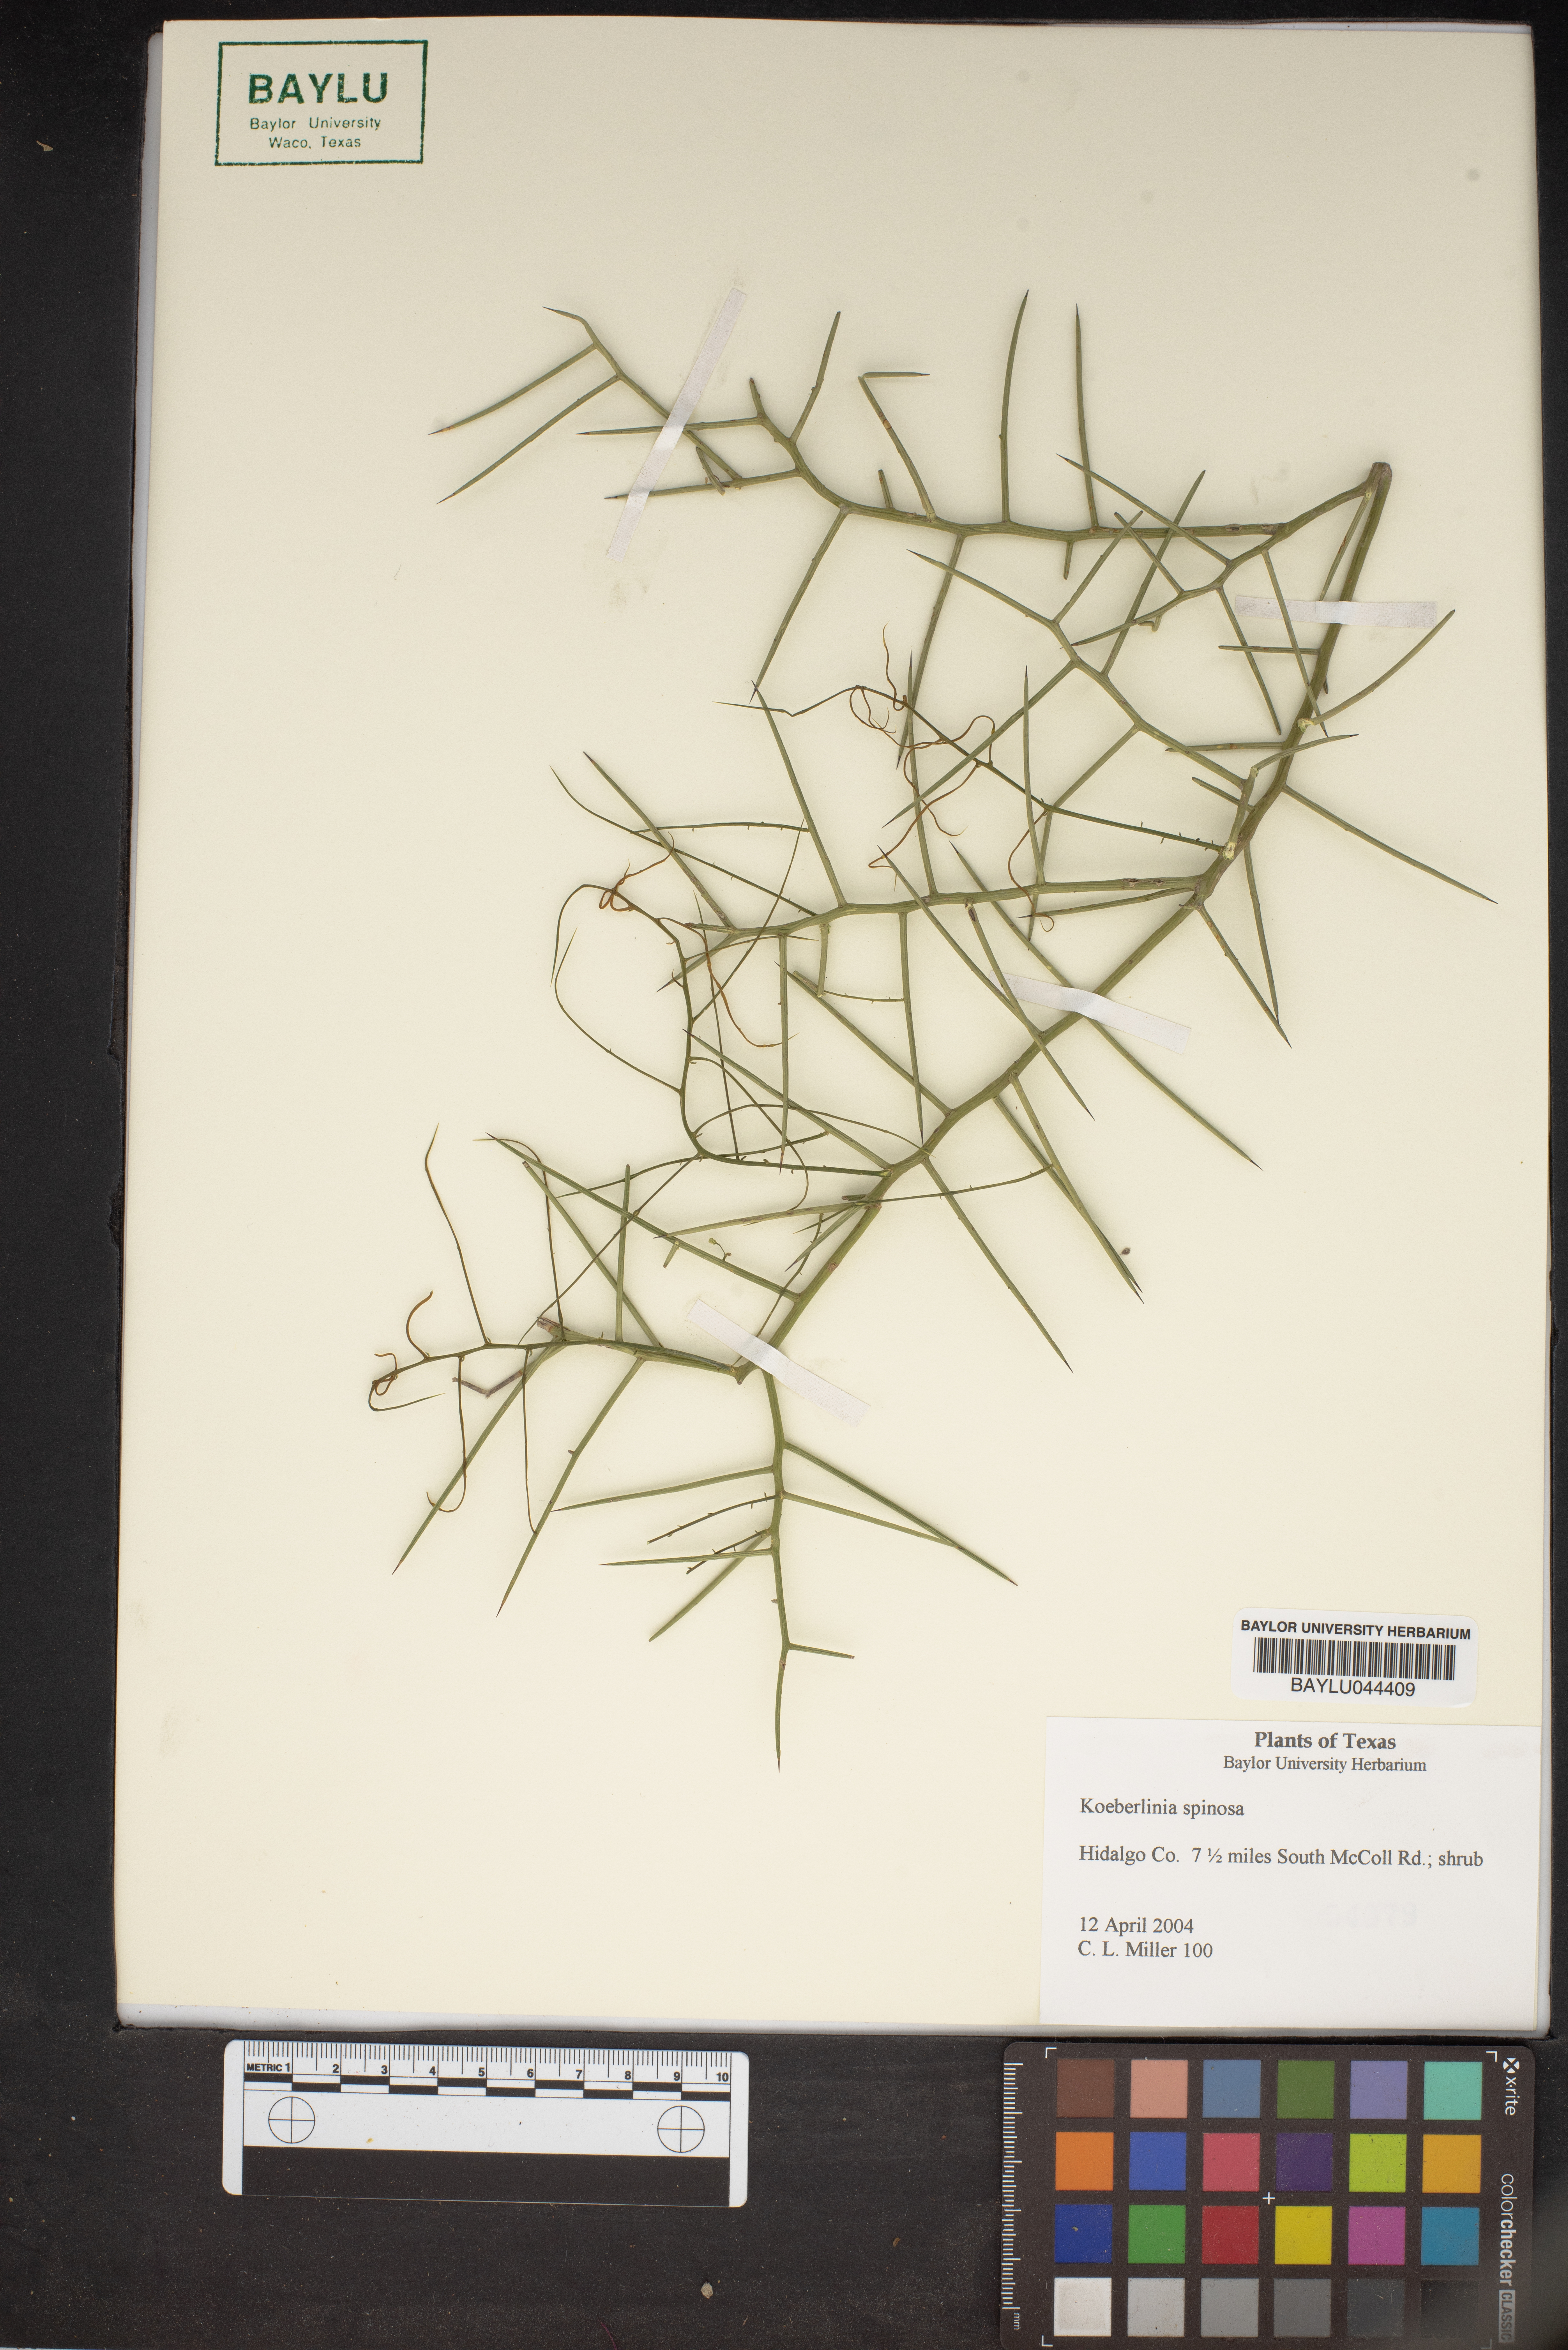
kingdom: Plantae
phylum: Tracheophyta
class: Magnoliopsida
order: Brassicales
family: Koeberliniaceae
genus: Koeberlinia
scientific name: Koeberlinia spinosa
